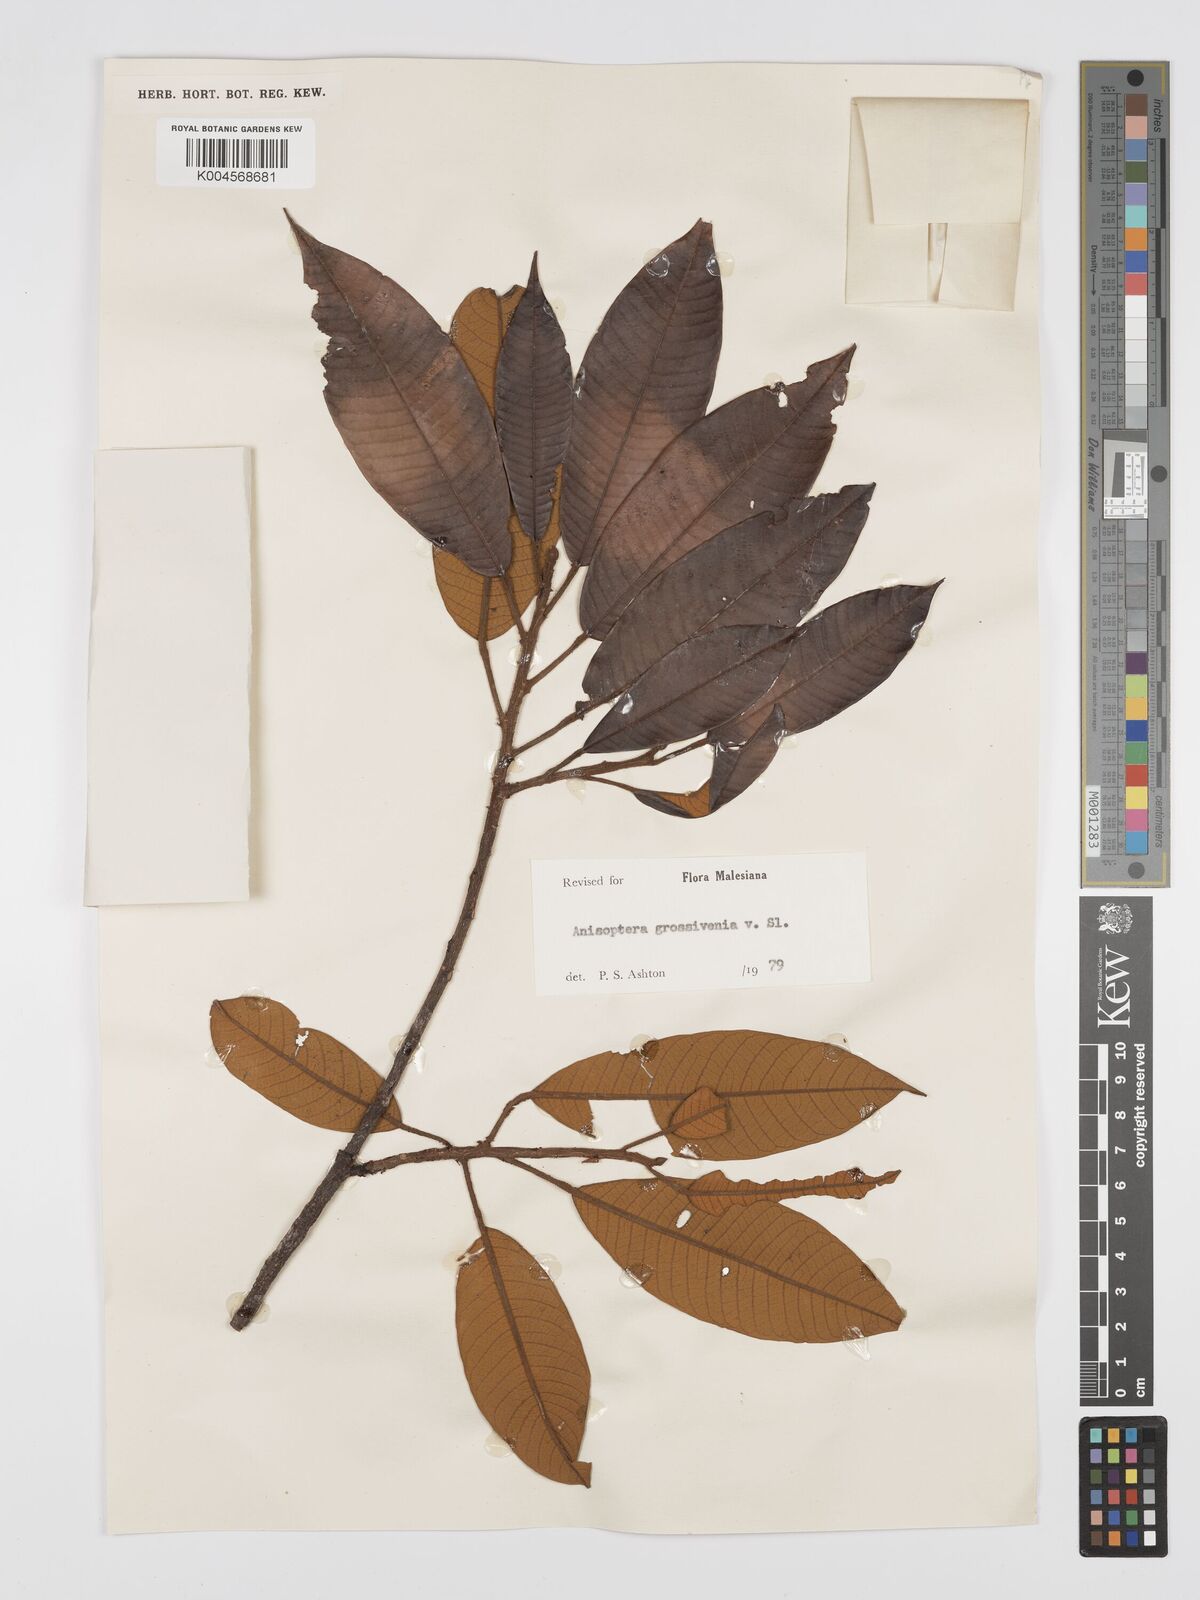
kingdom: Plantae
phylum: Tracheophyta
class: Magnoliopsida
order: Malvales
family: Dipterocarpaceae
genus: Anisoptera
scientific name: Anisoptera grossivenia
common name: Krabak
